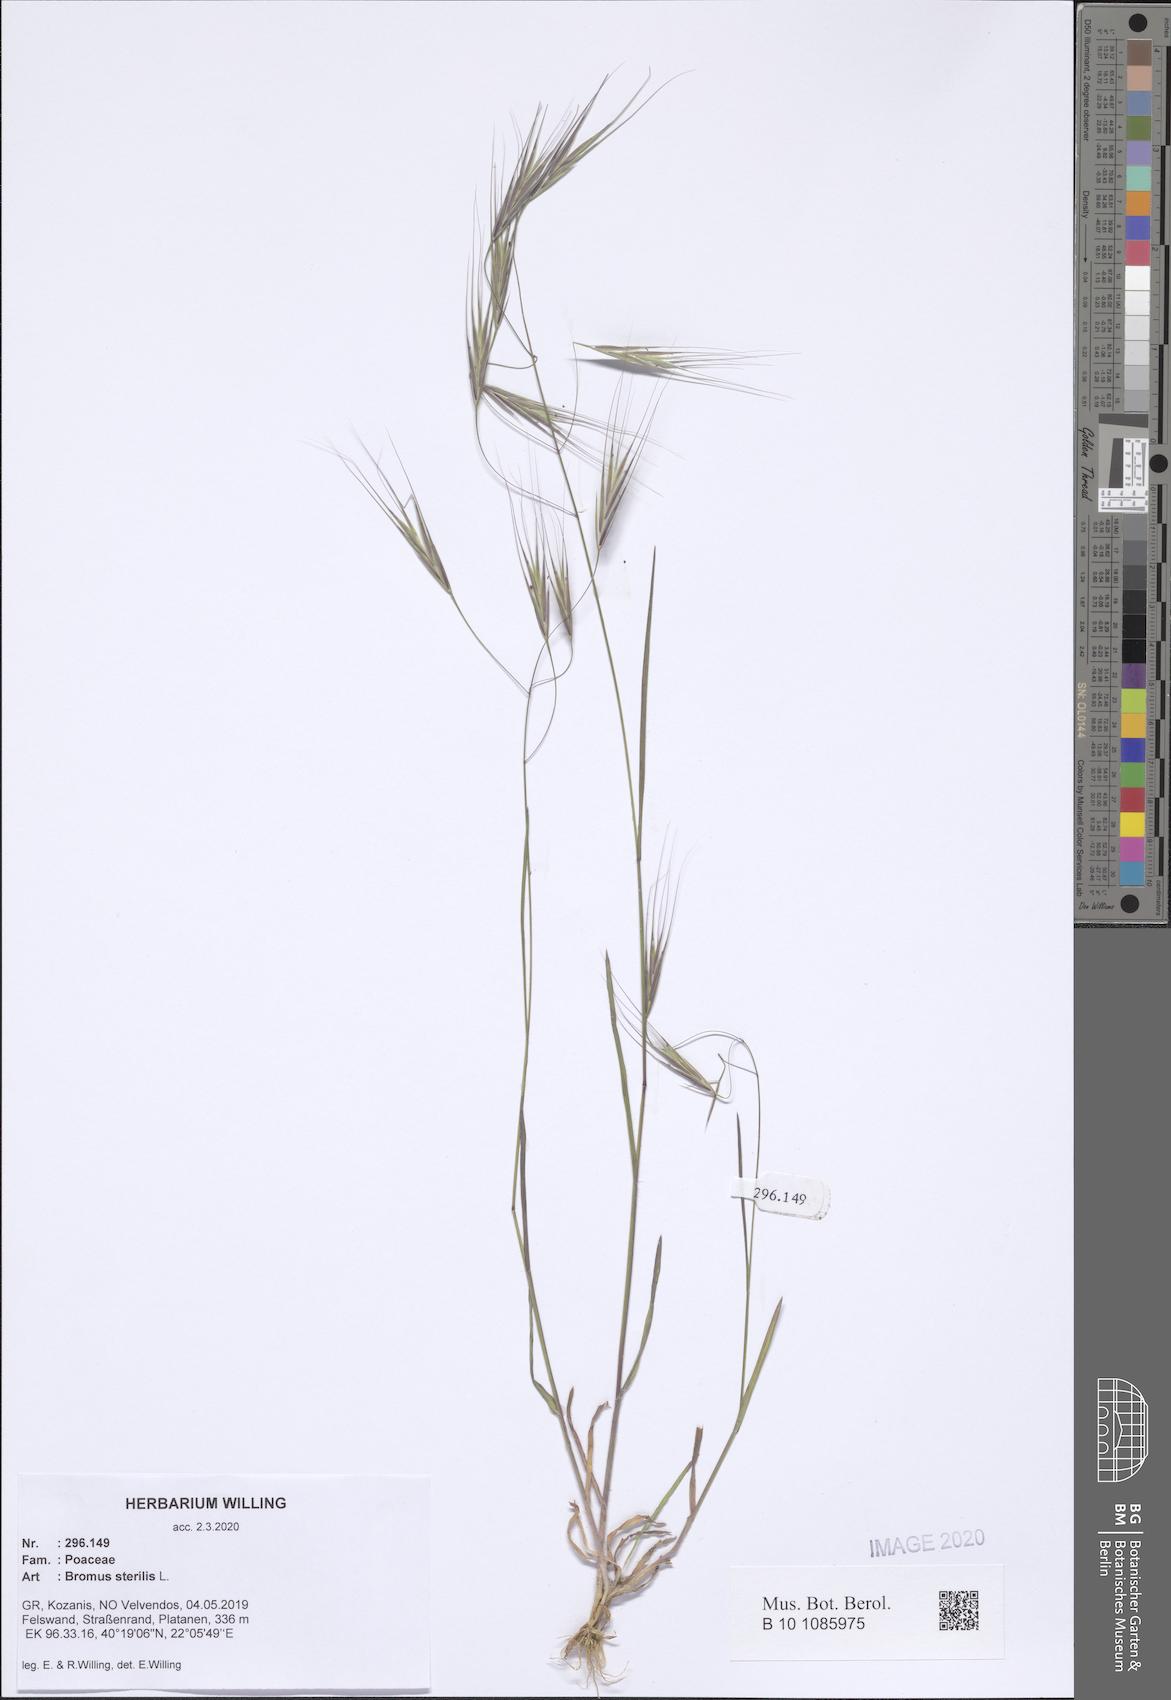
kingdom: Plantae
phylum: Tracheophyta
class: Liliopsida
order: Poales
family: Poaceae
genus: Bromus
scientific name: Bromus sterilis
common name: Poverty brome
